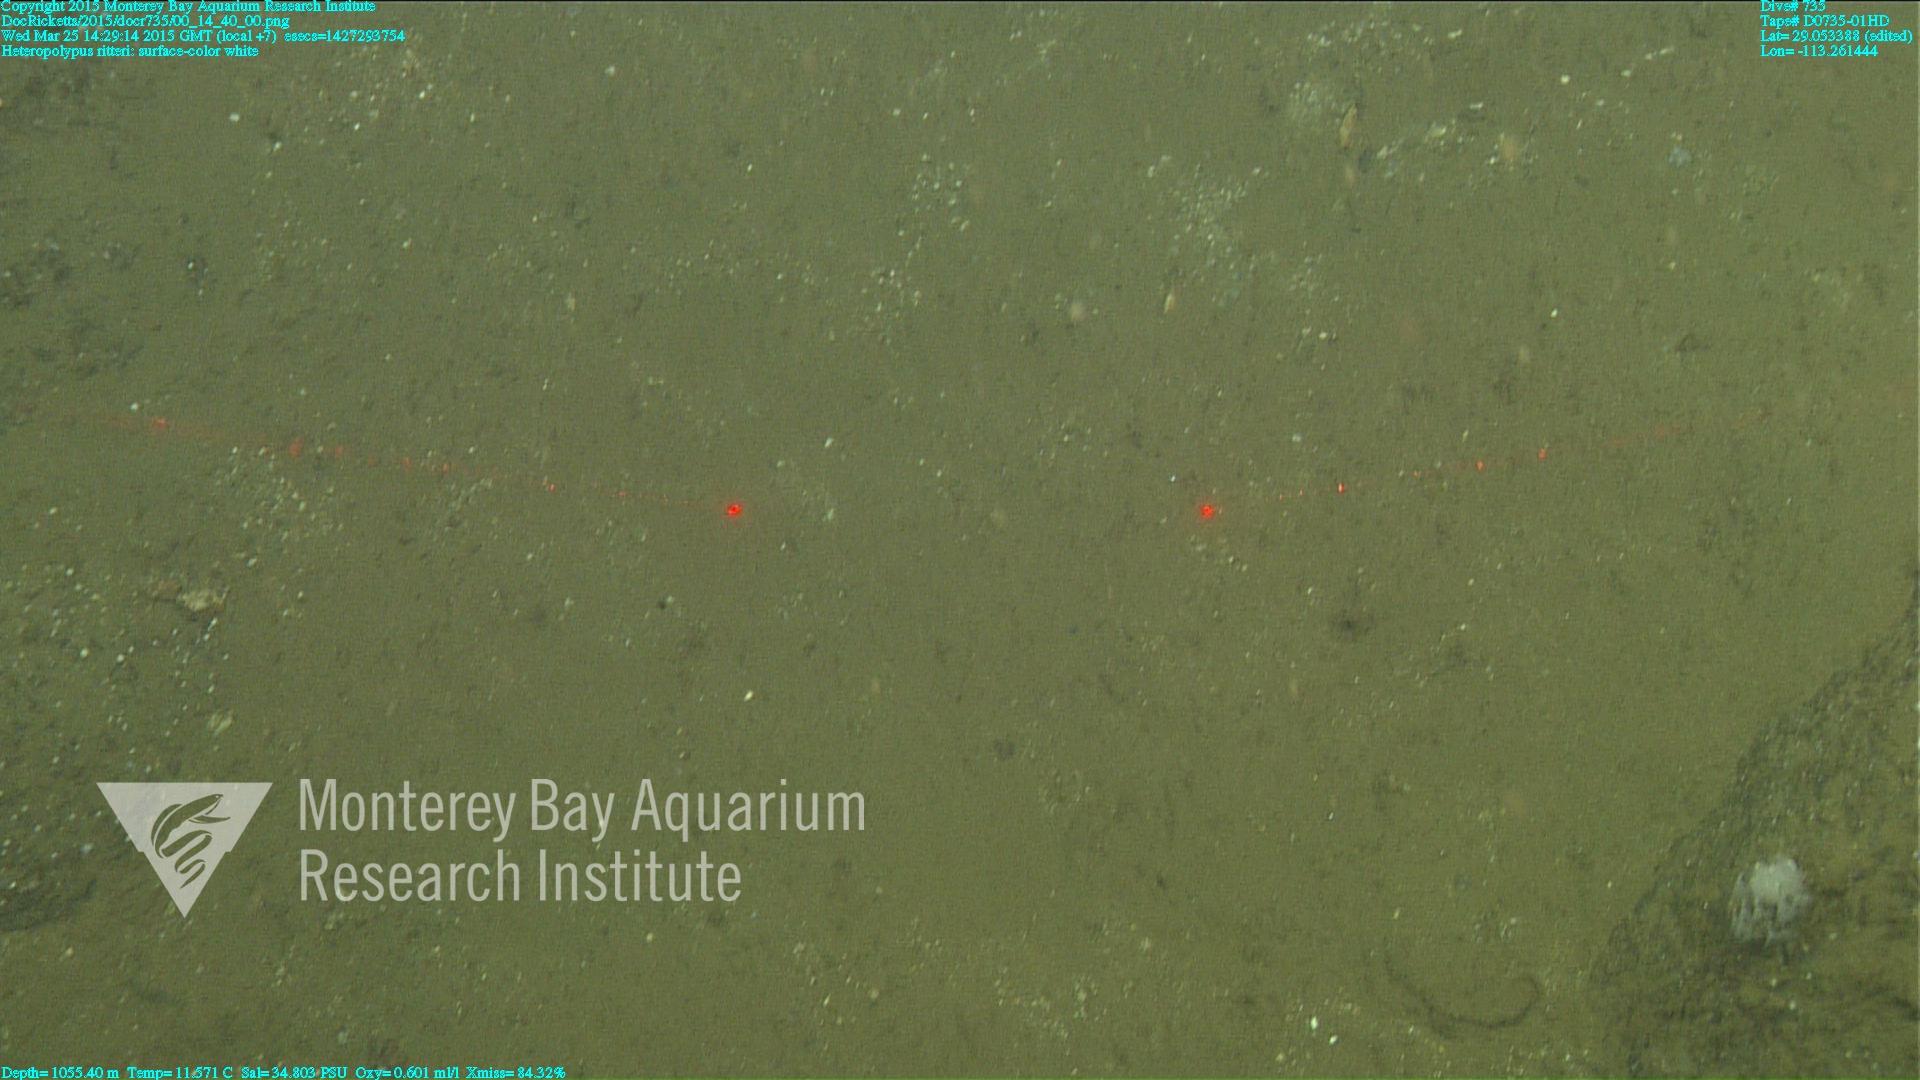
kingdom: Animalia
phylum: Cnidaria
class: Anthozoa
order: Scleralcyonacea
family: Coralliidae
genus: Heteropolypus
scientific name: Heteropolypus ritteri
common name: Ritter's soft coral
